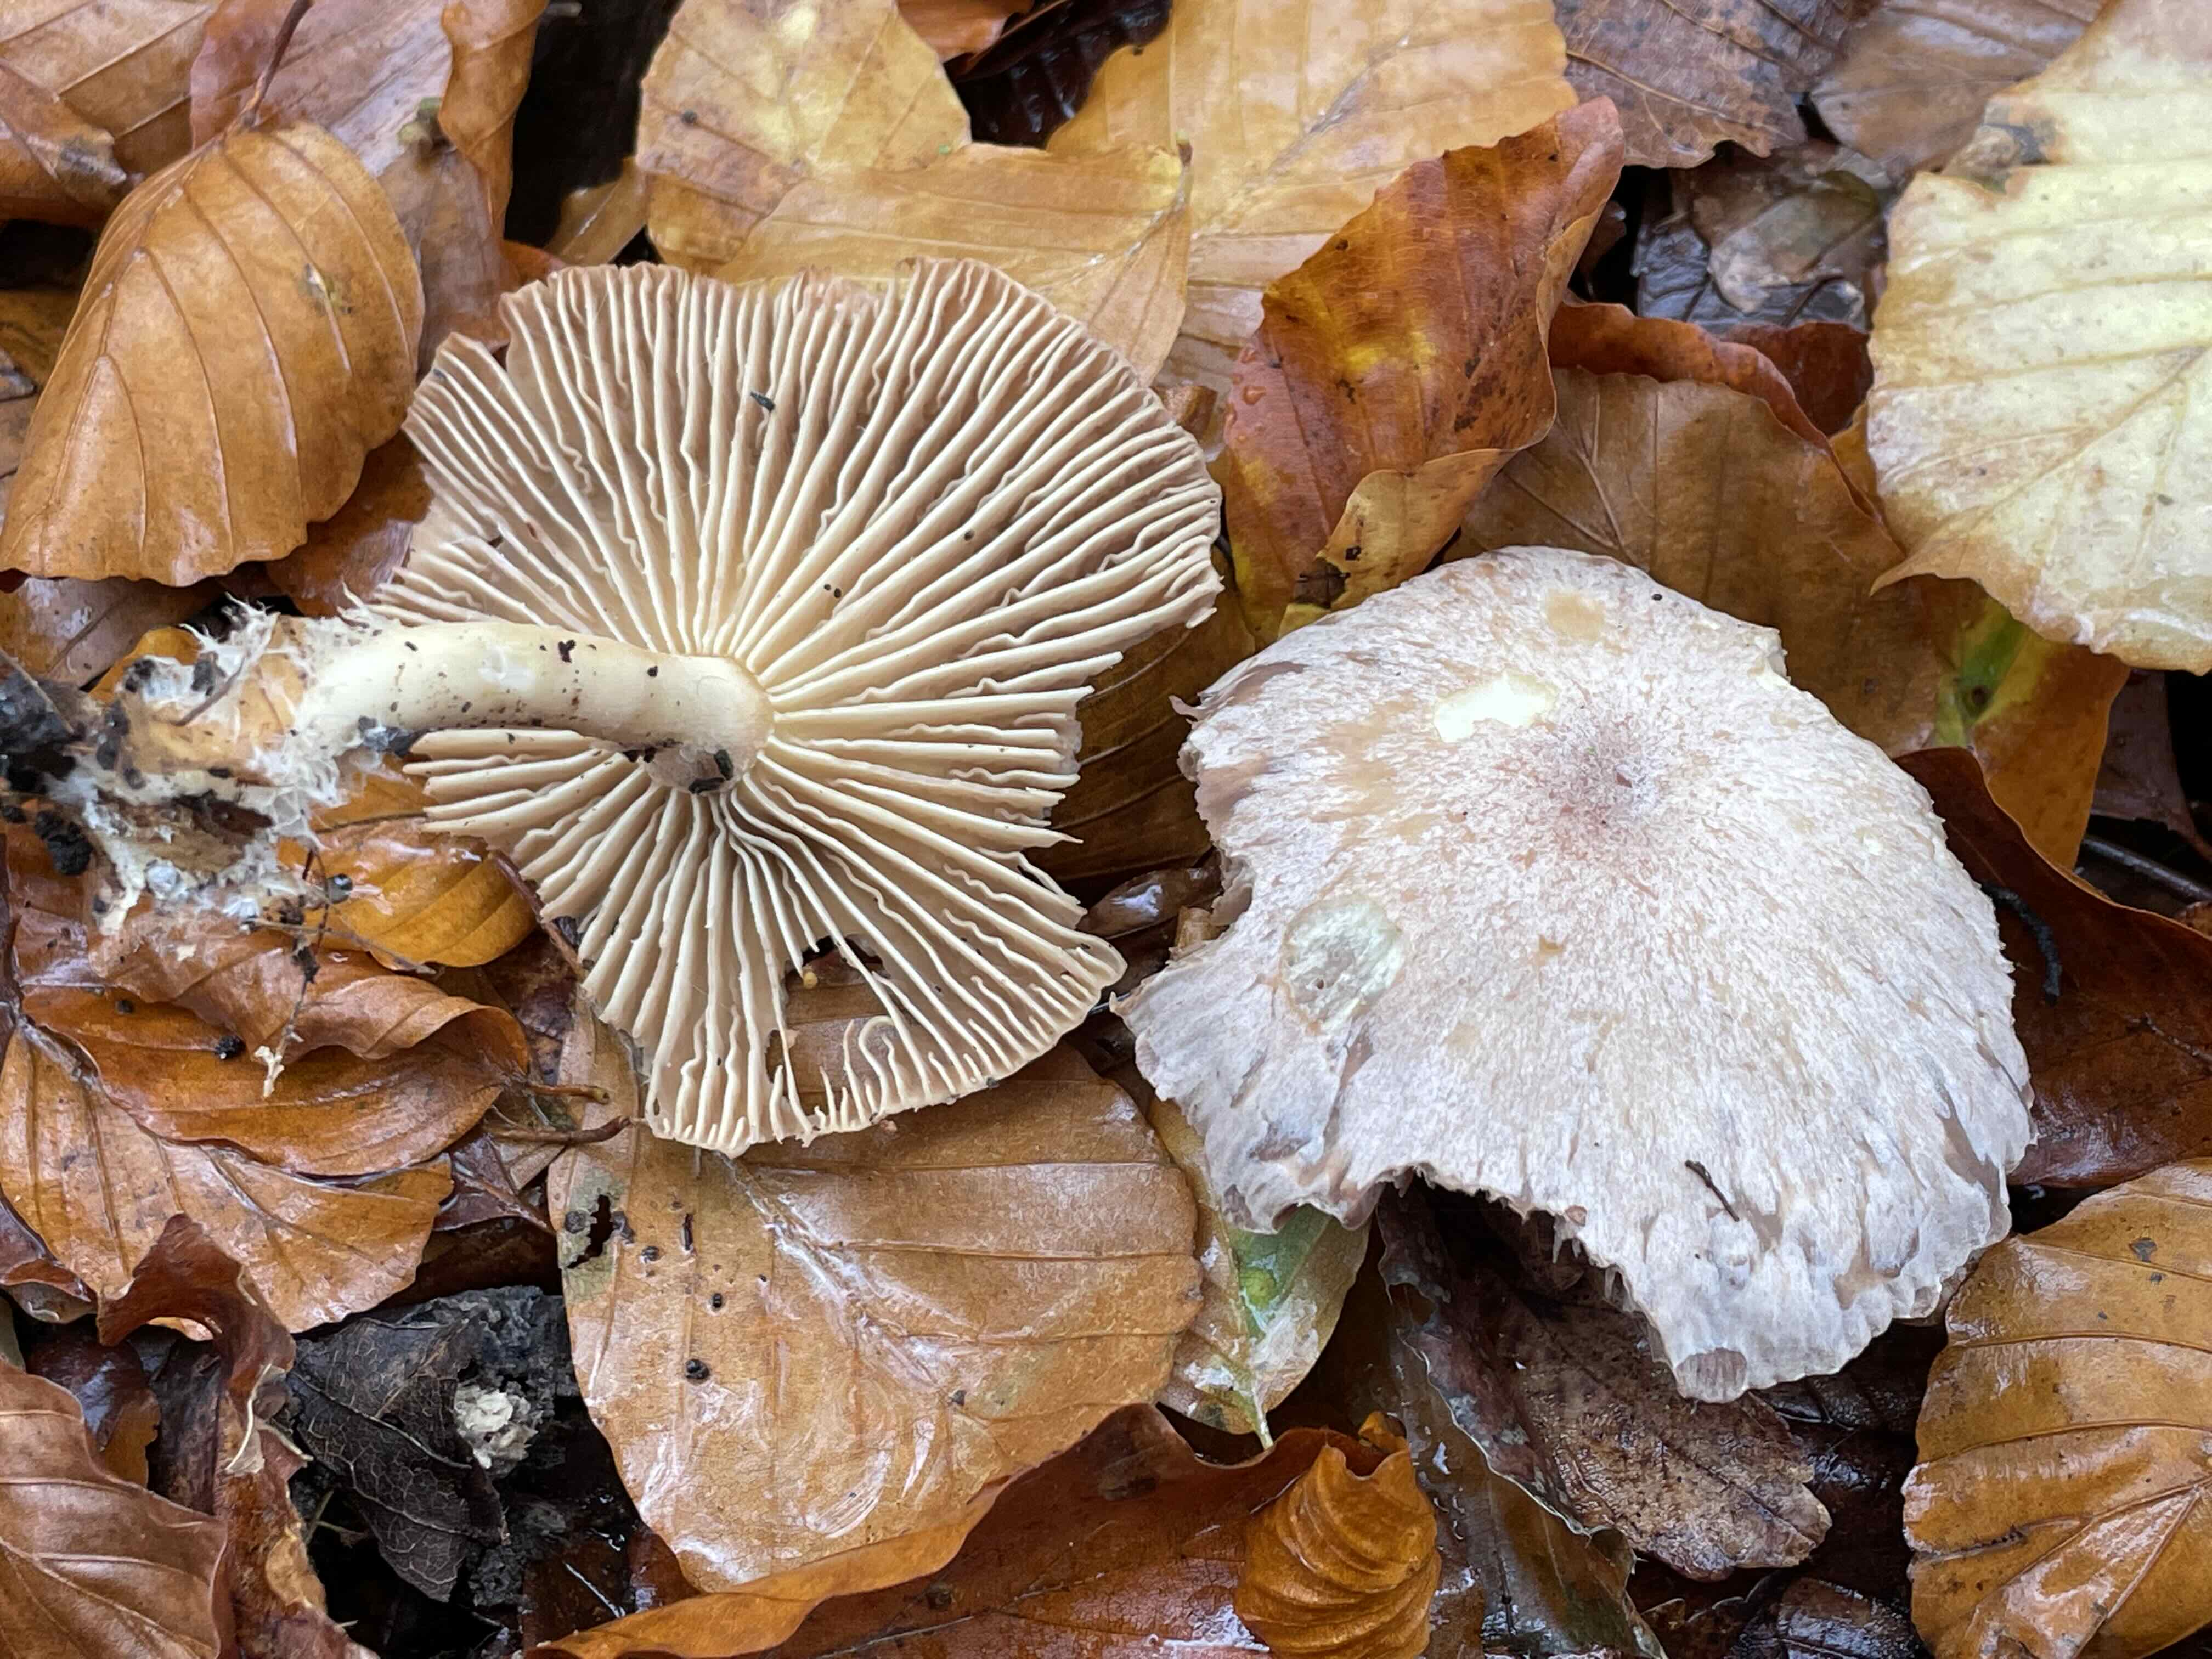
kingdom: Fungi
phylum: Basidiomycota
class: Agaricomycetes
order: Agaricales
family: Omphalotaceae
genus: Collybiopsis
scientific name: Collybiopsis peronata
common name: bestøvlet fladhat
